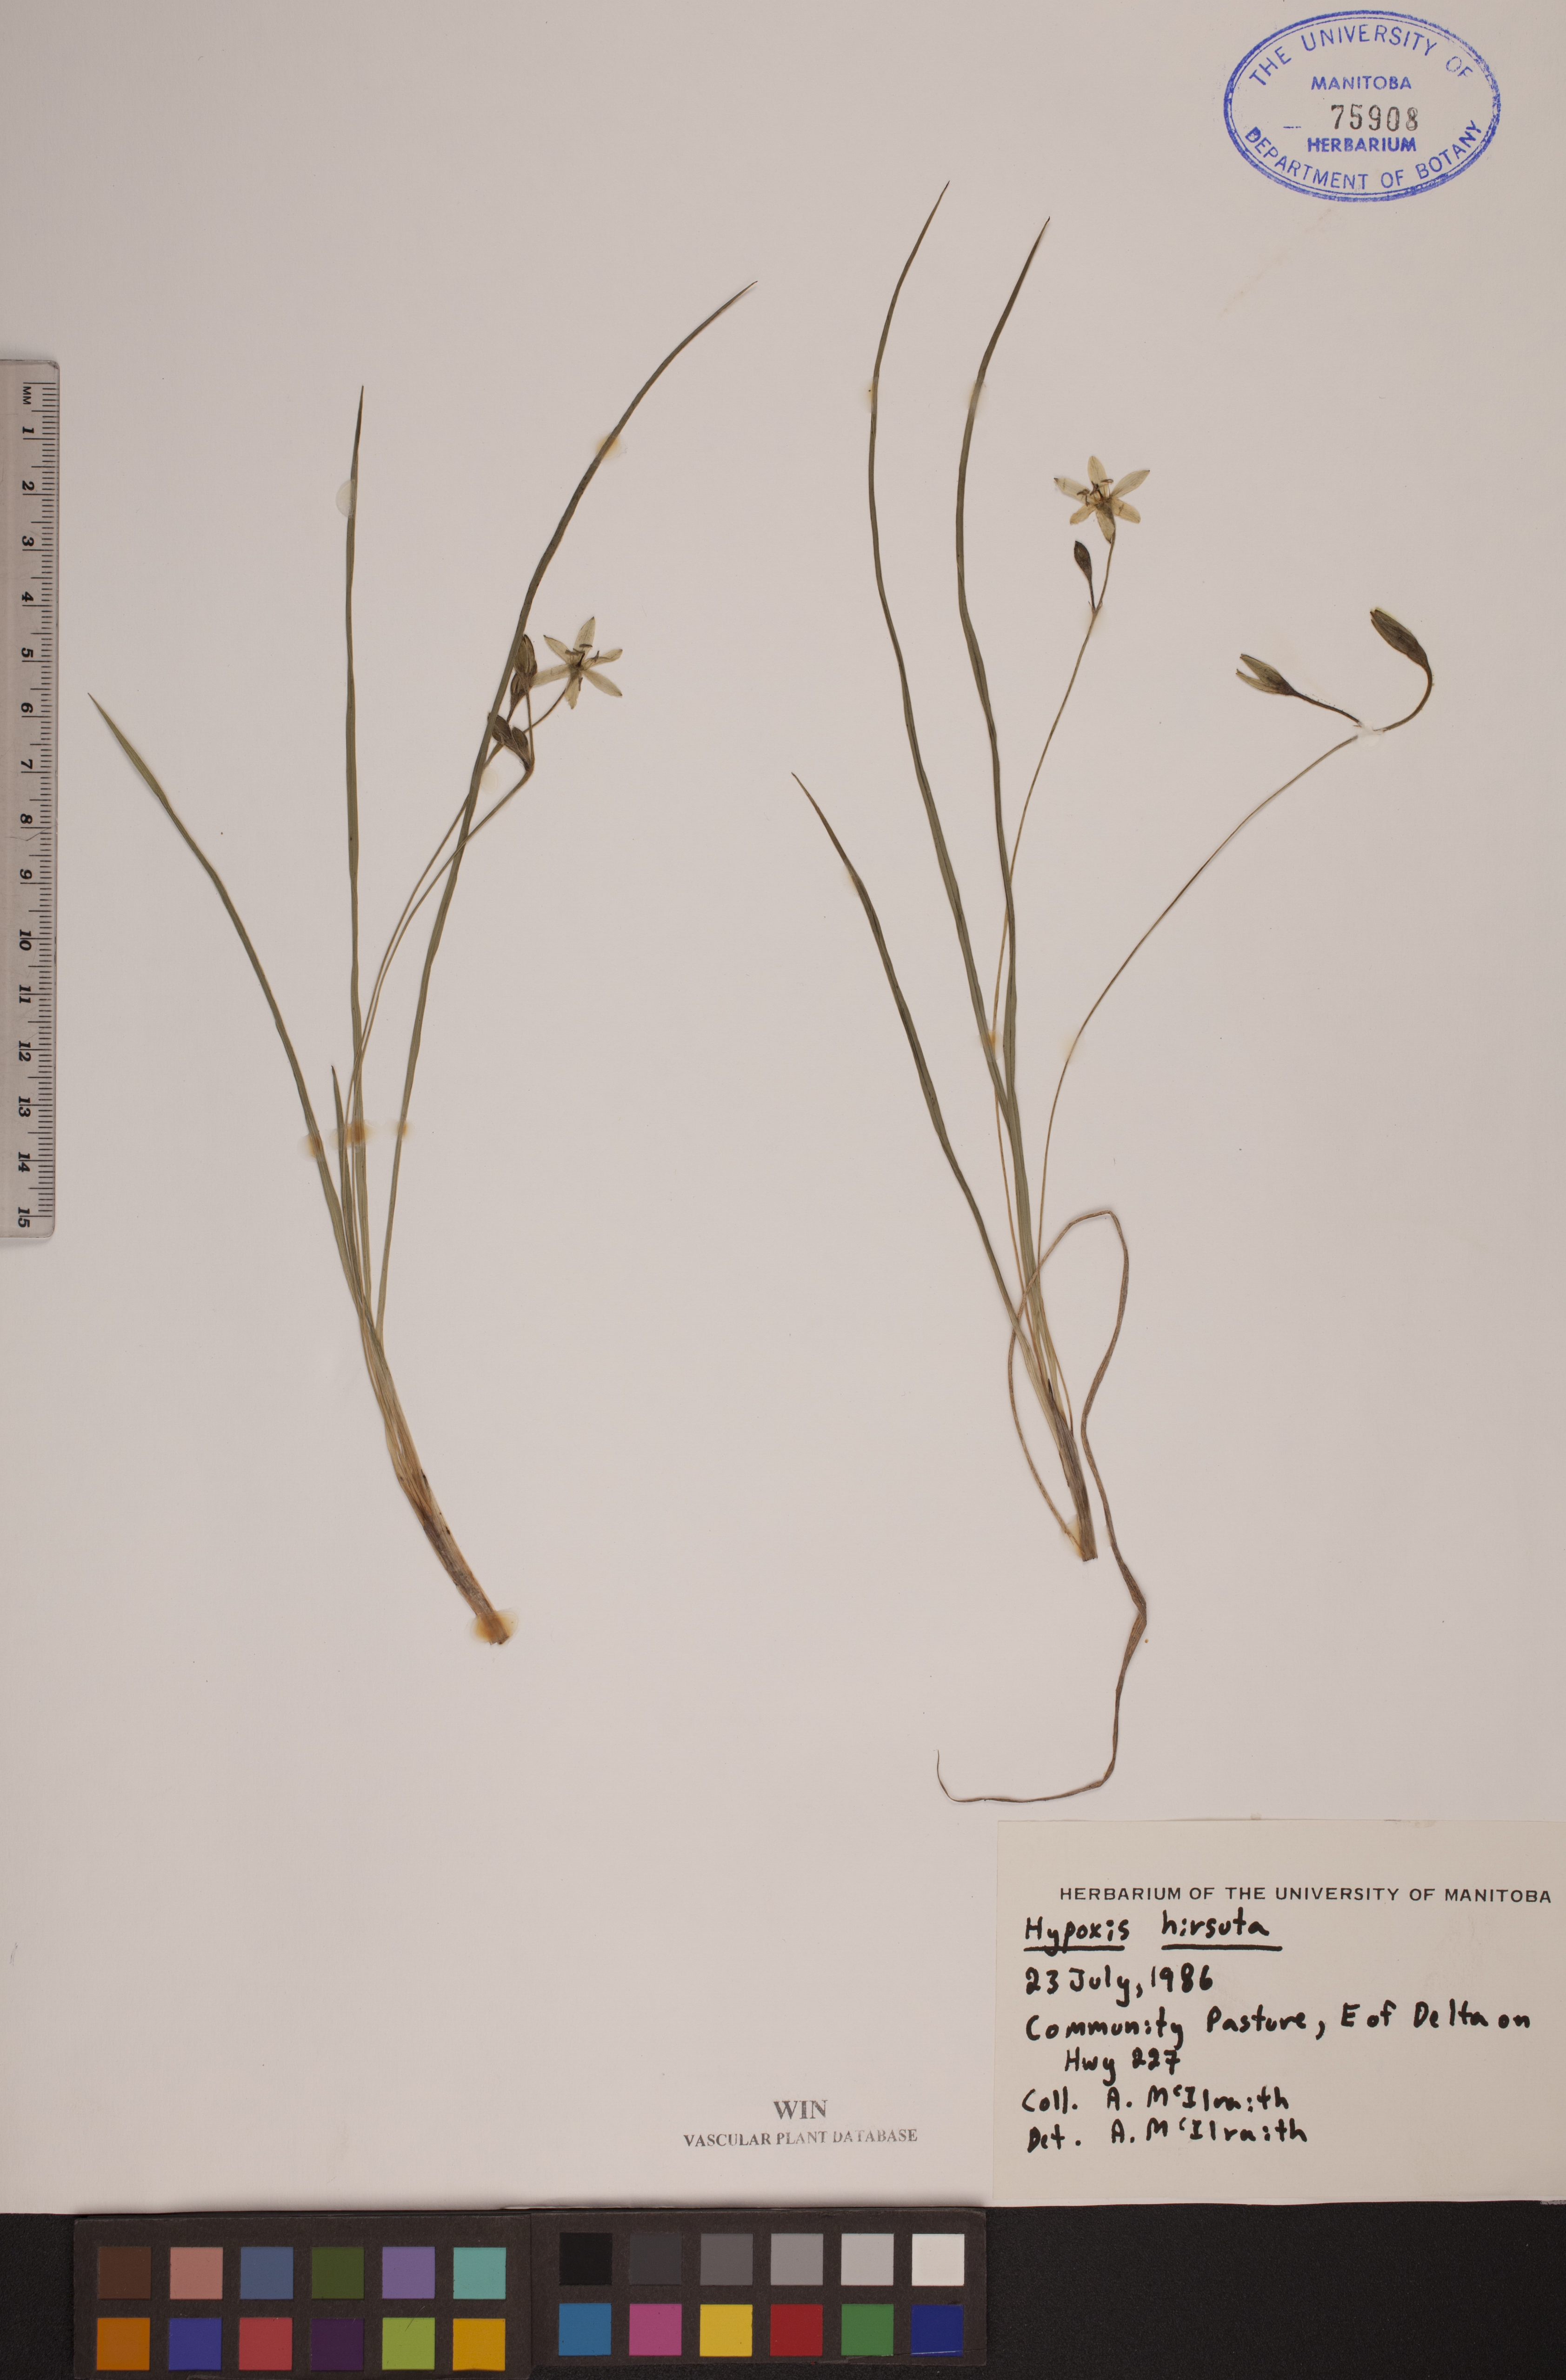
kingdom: Plantae
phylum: Tracheophyta
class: Liliopsida
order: Asparagales
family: Hypoxidaceae
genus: Hypoxis
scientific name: Hypoxis hirsuta
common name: Common goldstar
